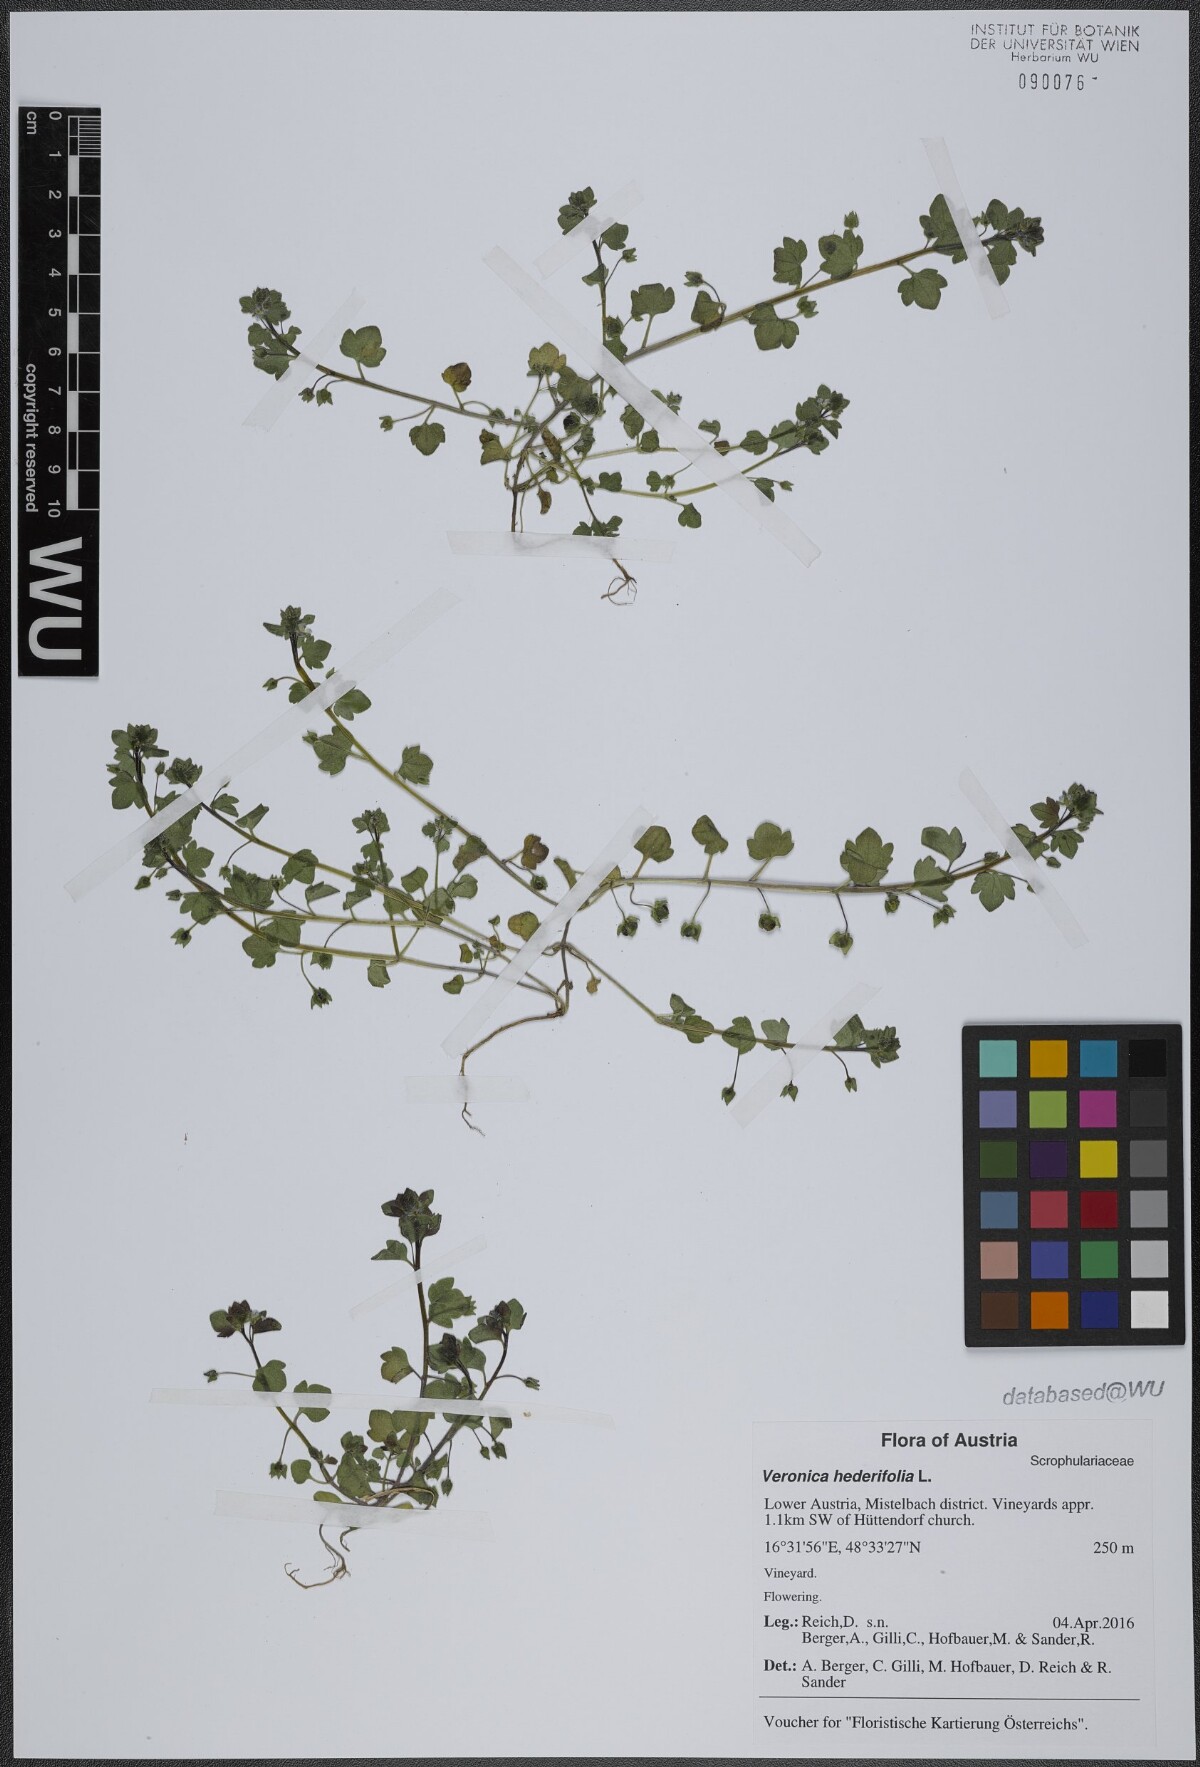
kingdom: Plantae
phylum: Tracheophyta
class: Magnoliopsida
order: Lamiales
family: Plantaginaceae
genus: Veronica
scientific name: Veronica hederifolia
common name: Ivy-leaved speedwell
